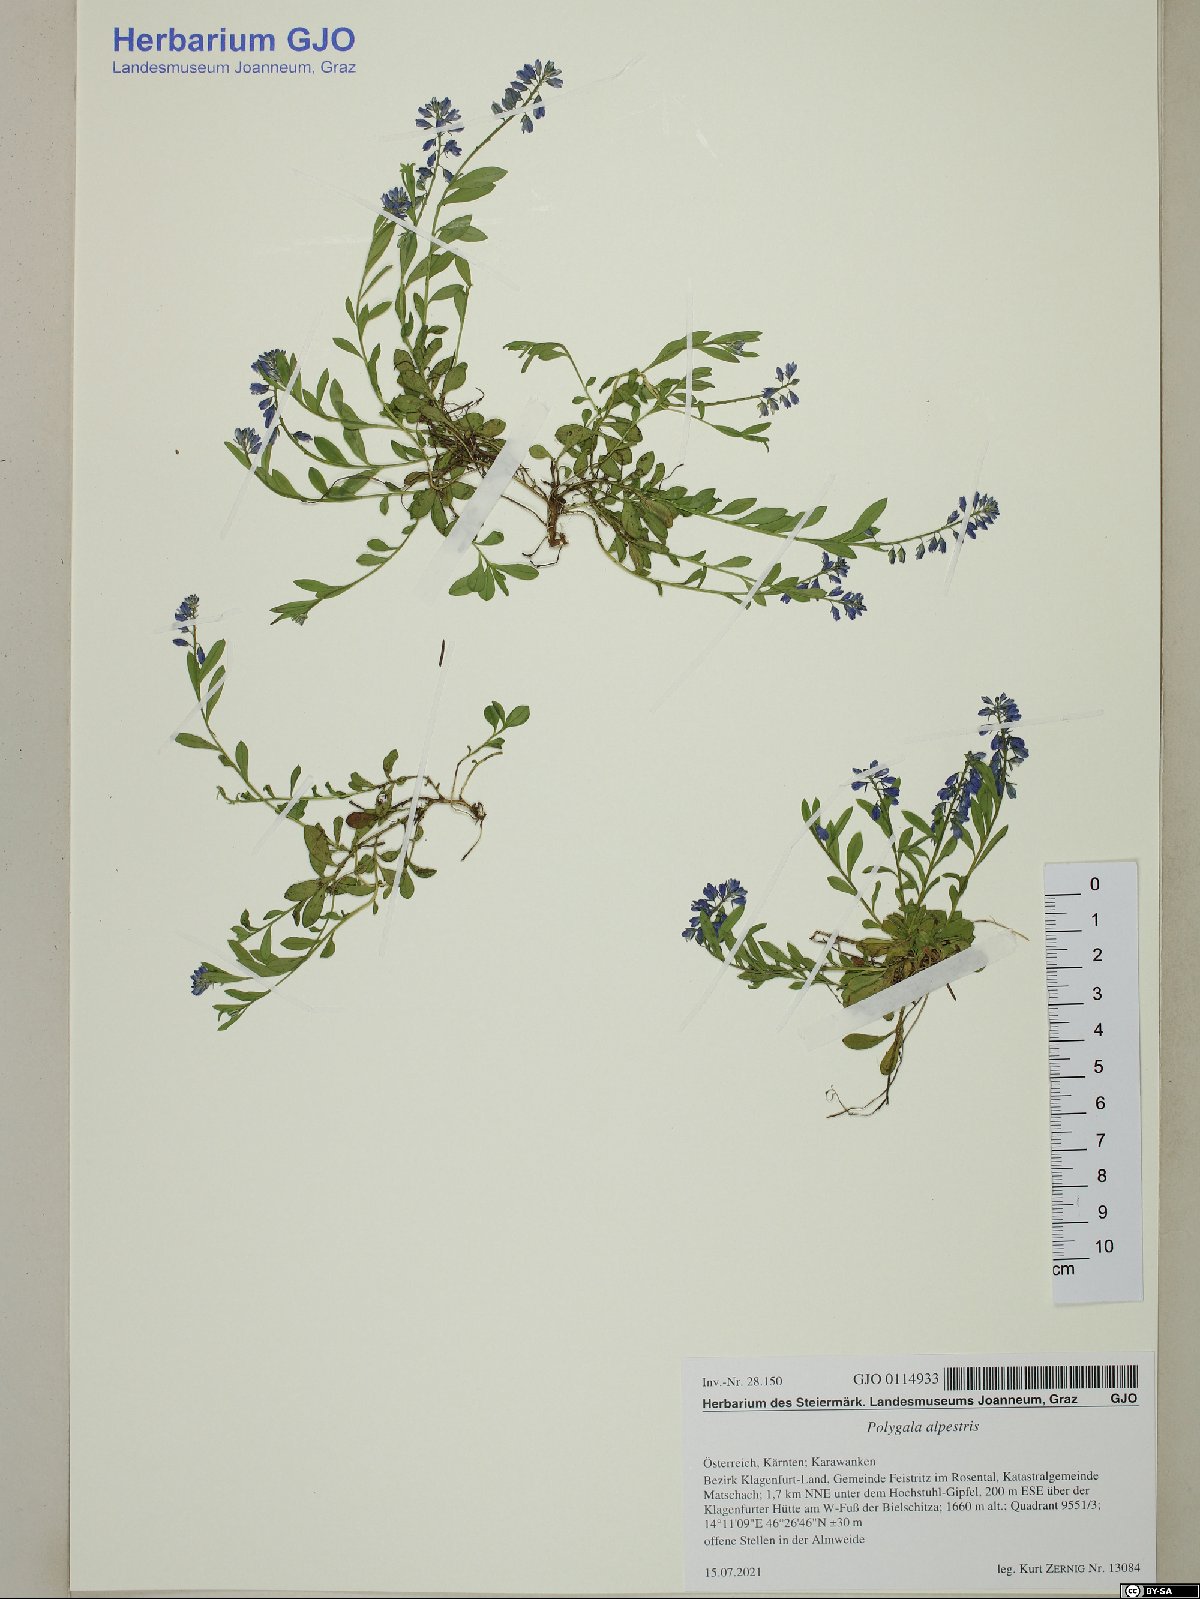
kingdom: Plantae
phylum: Tracheophyta
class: Magnoliopsida
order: Fabales
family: Polygalaceae
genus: Polygala
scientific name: Polygala alpestris
